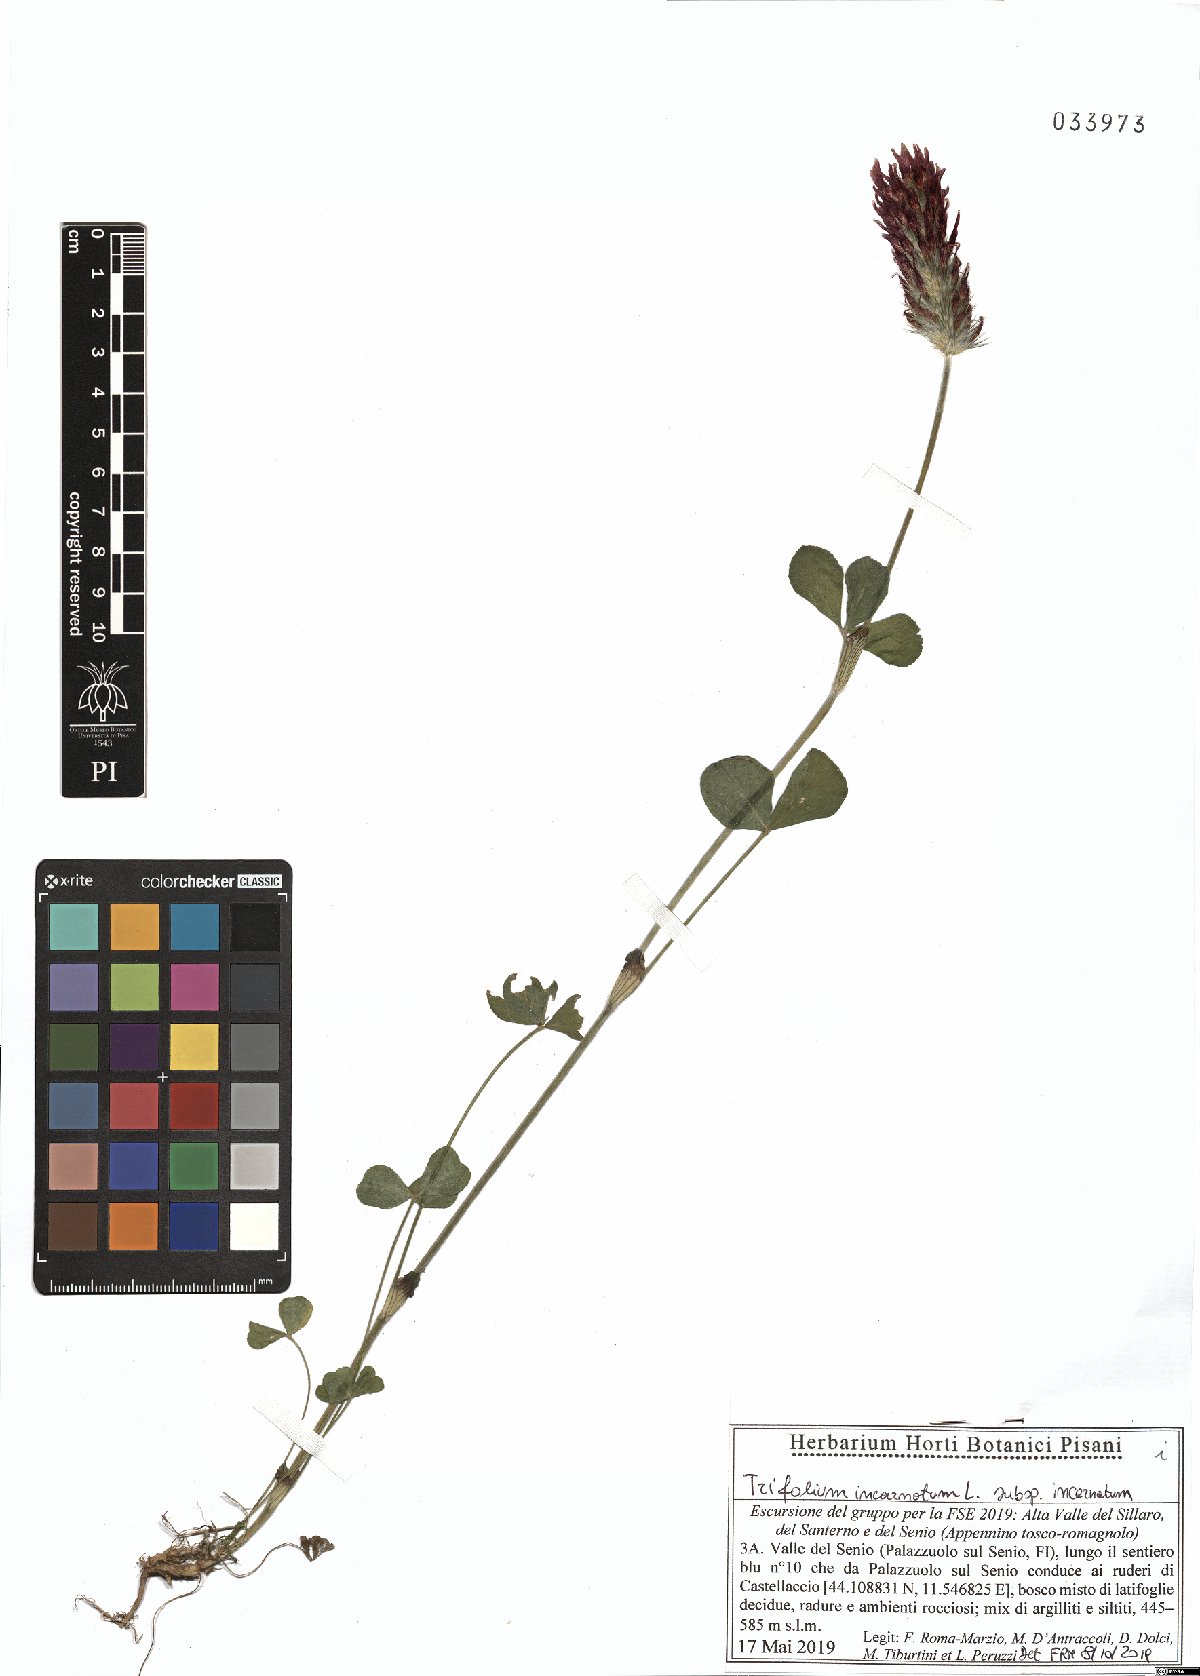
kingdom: Plantae
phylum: Tracheophyta
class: Magnoliopsida
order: Fabales
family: Fabaceae
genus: Trifolium
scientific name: Trifolium incarnatum
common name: Crimson clover
